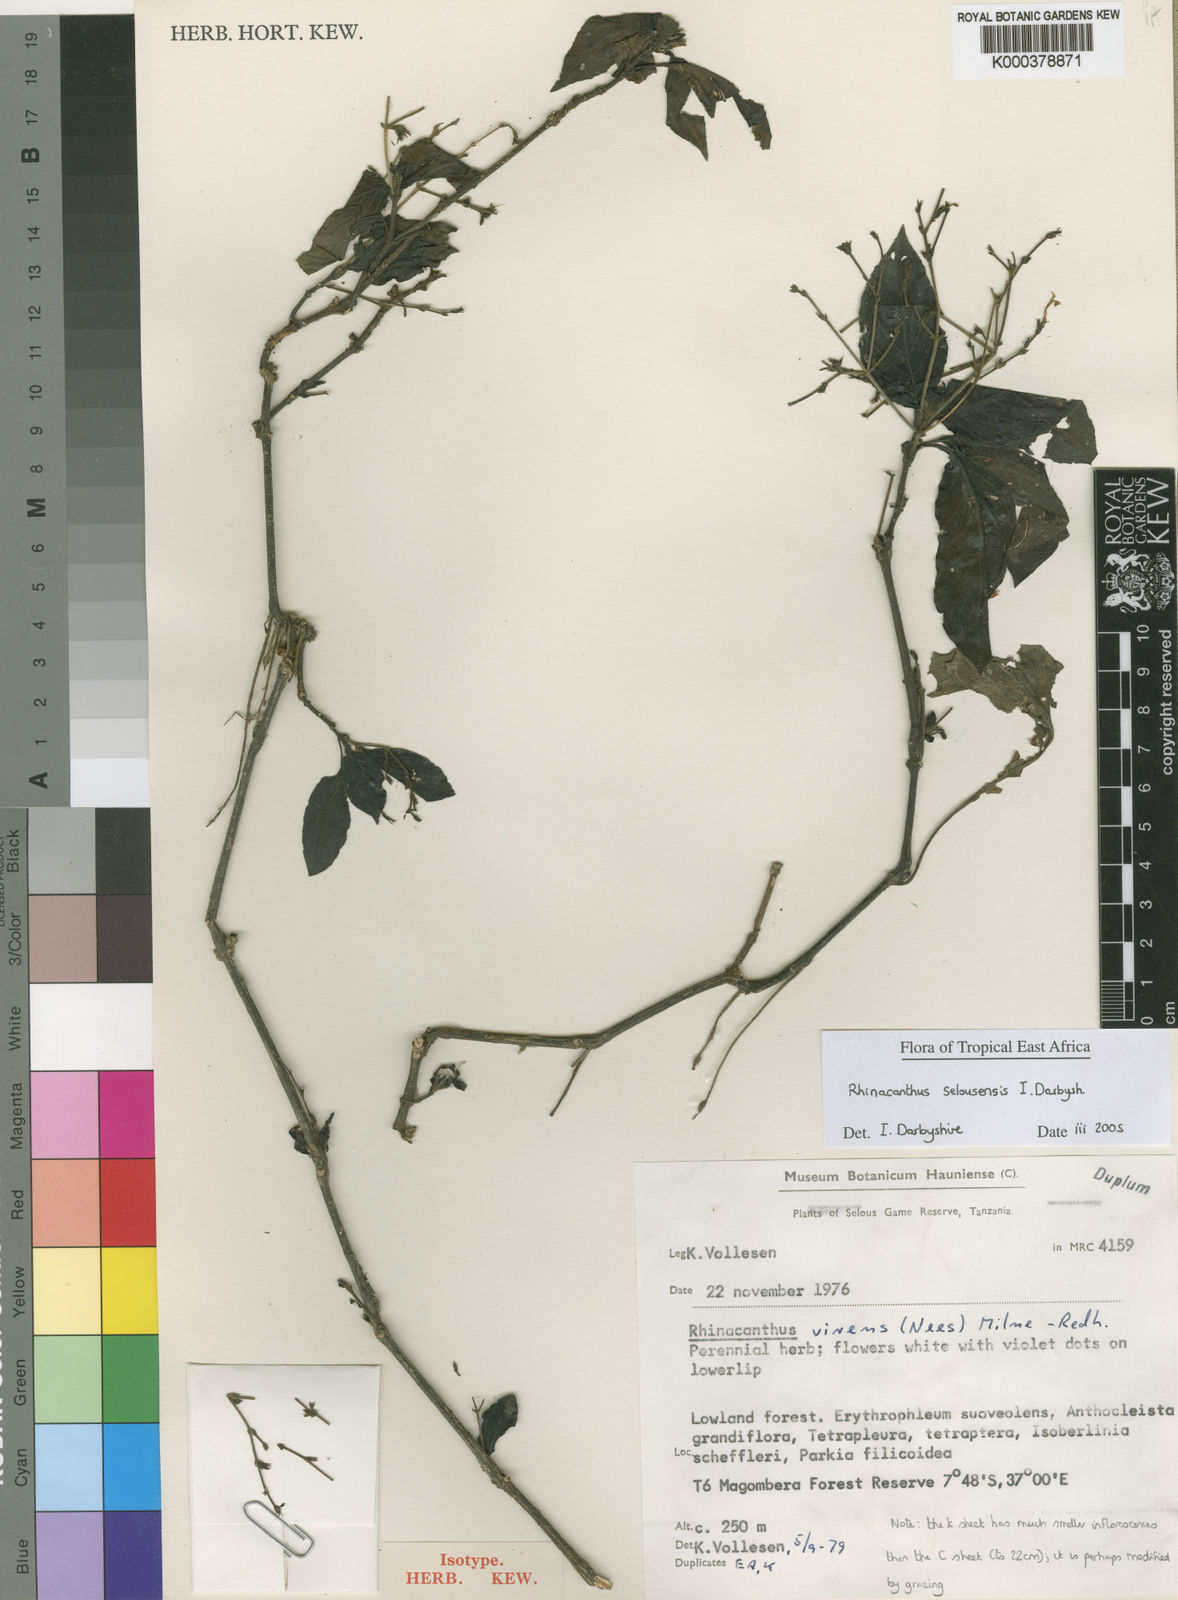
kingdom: Plantae
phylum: Tracheophyta
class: Magnoliopsida
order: Lamiales
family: Acanthaceae
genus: Rhinacanthus
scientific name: Rhinacanthus selousensis
